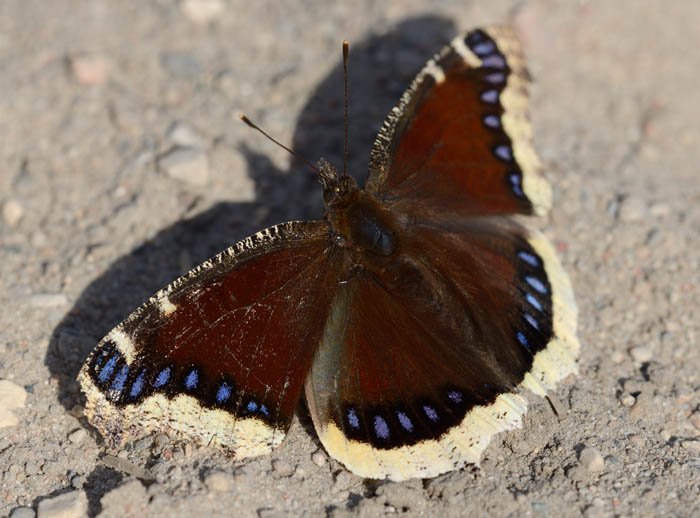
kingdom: Animalia
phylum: Arthropoda
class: Insecta
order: Lepidoptera
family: Nymphalidae
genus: Nymphalis
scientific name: Nymphalis antiopa
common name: Mourning Cloak
